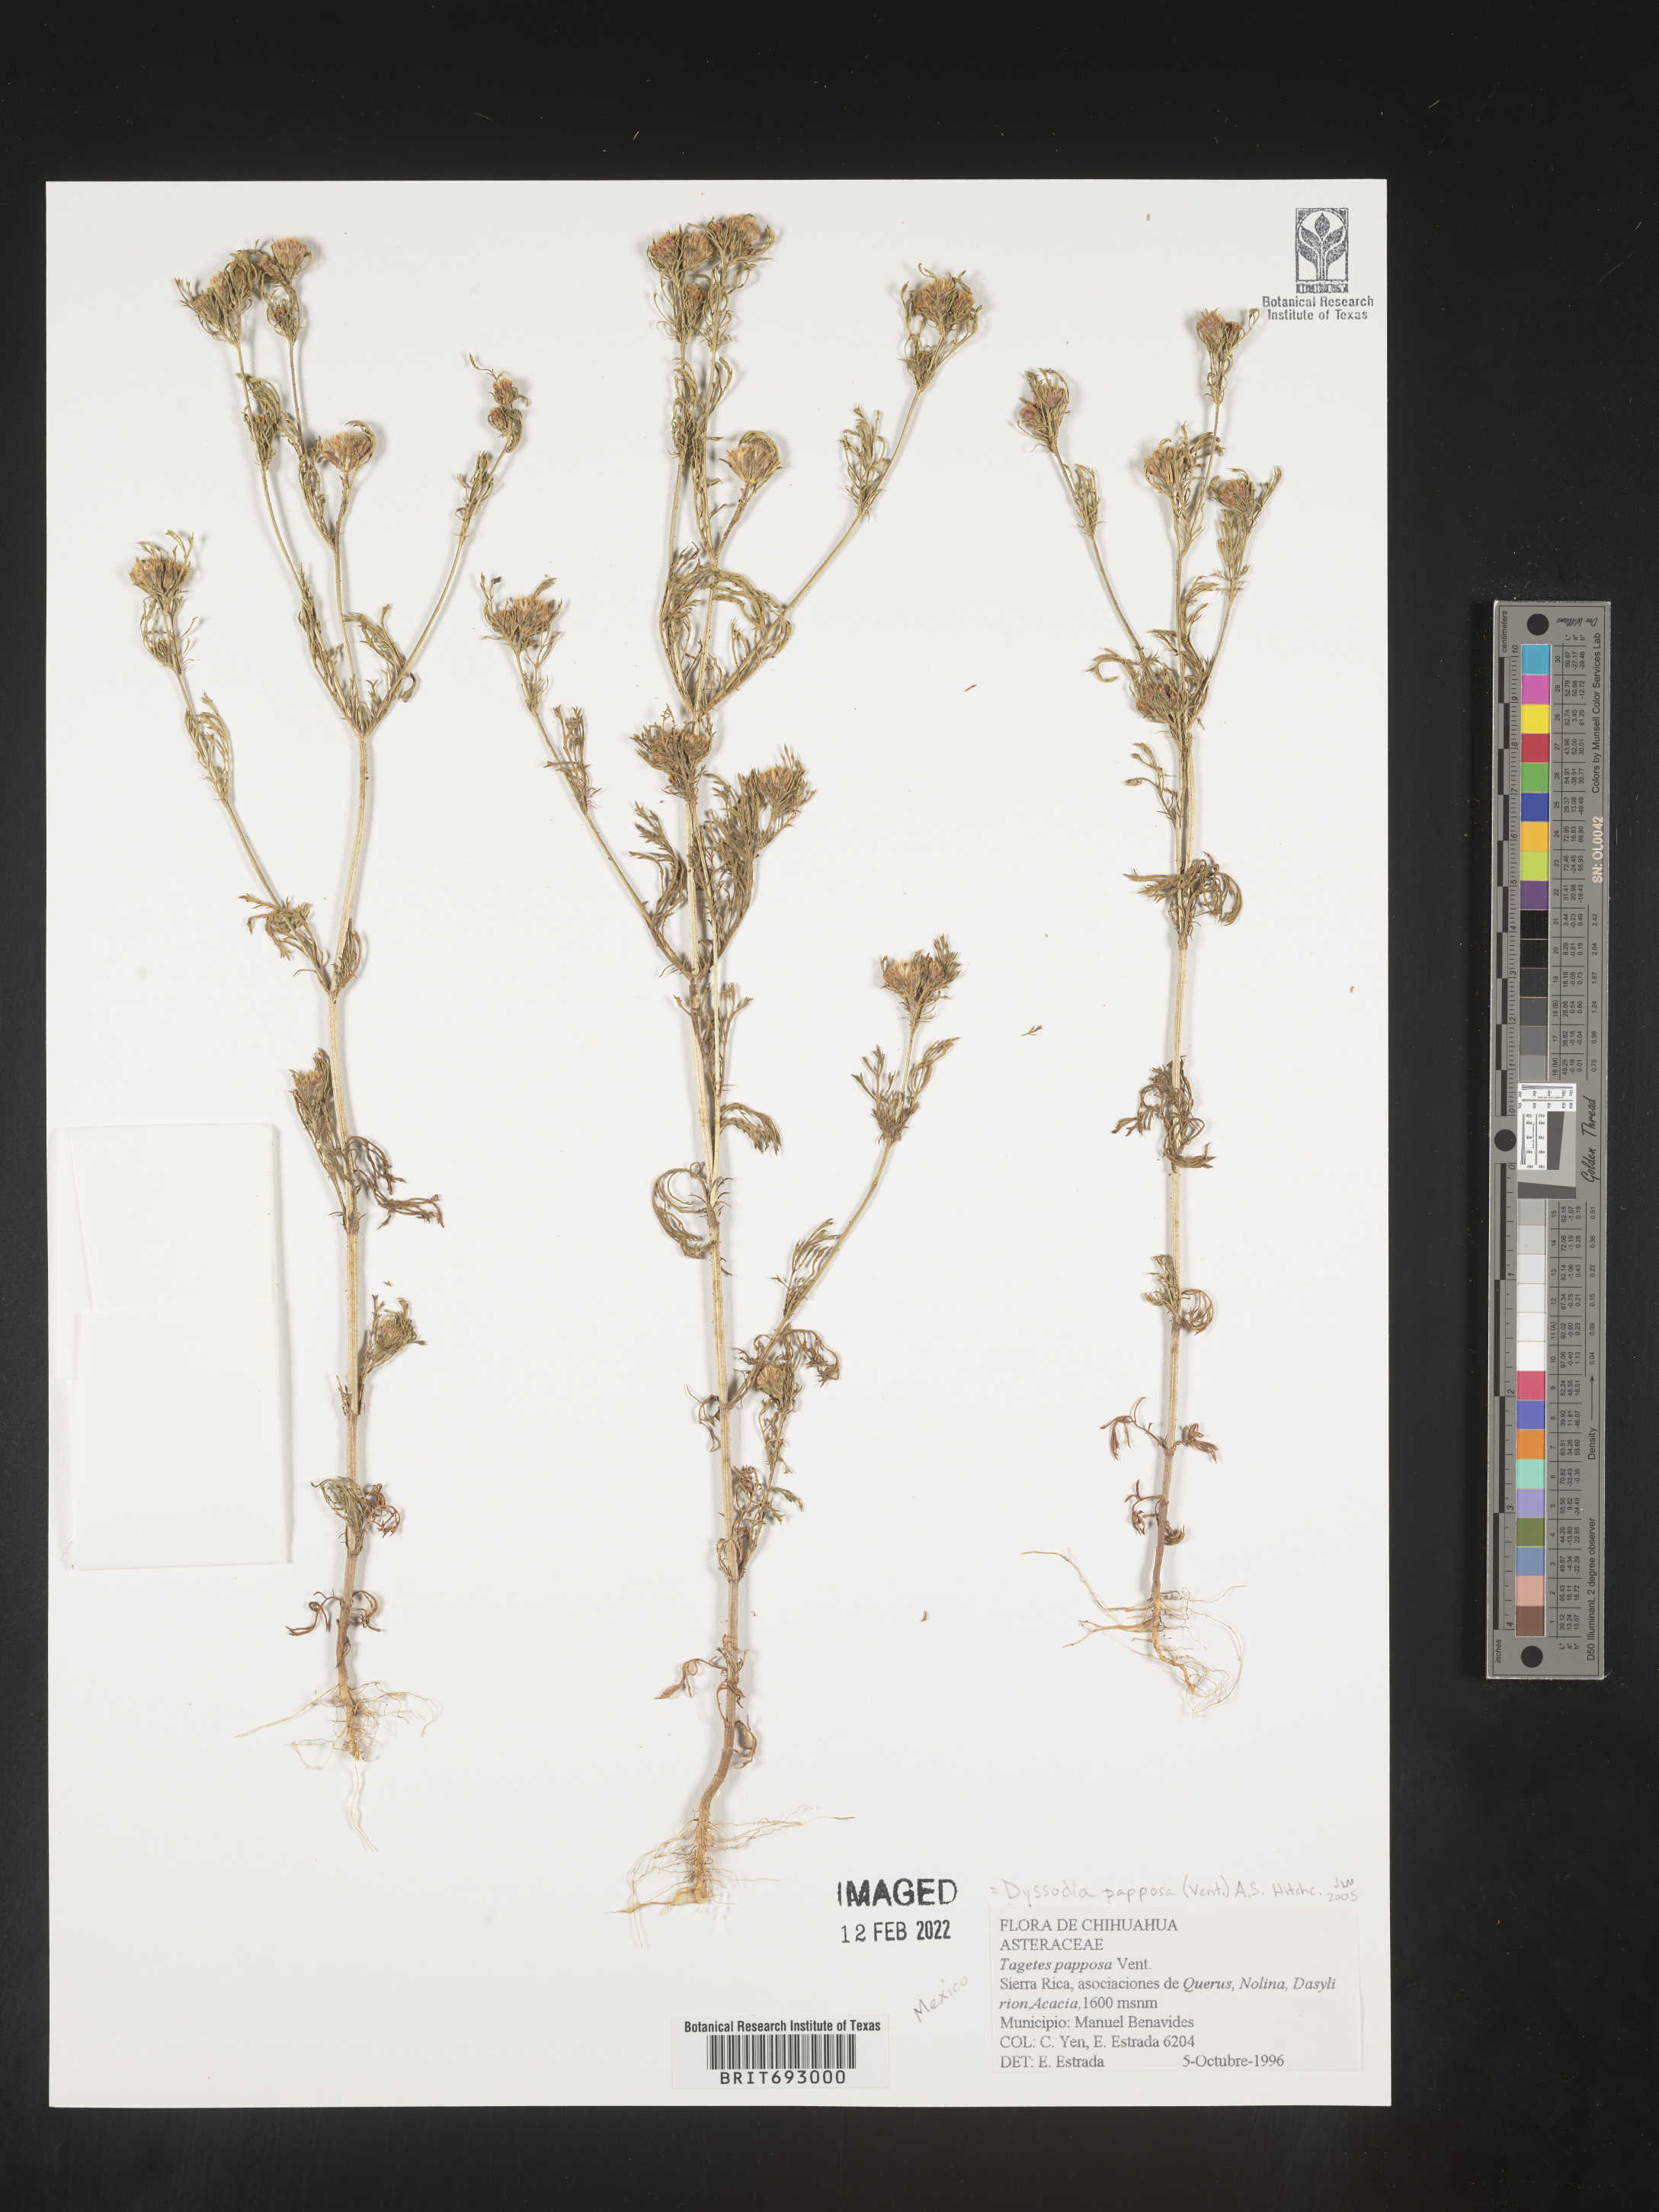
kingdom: Plantae
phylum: Tracheophyta
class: Magnoliopsida
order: Asterales
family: Asteraceae
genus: Dyssodia
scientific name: Dyssodia papposa
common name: Dogweed
